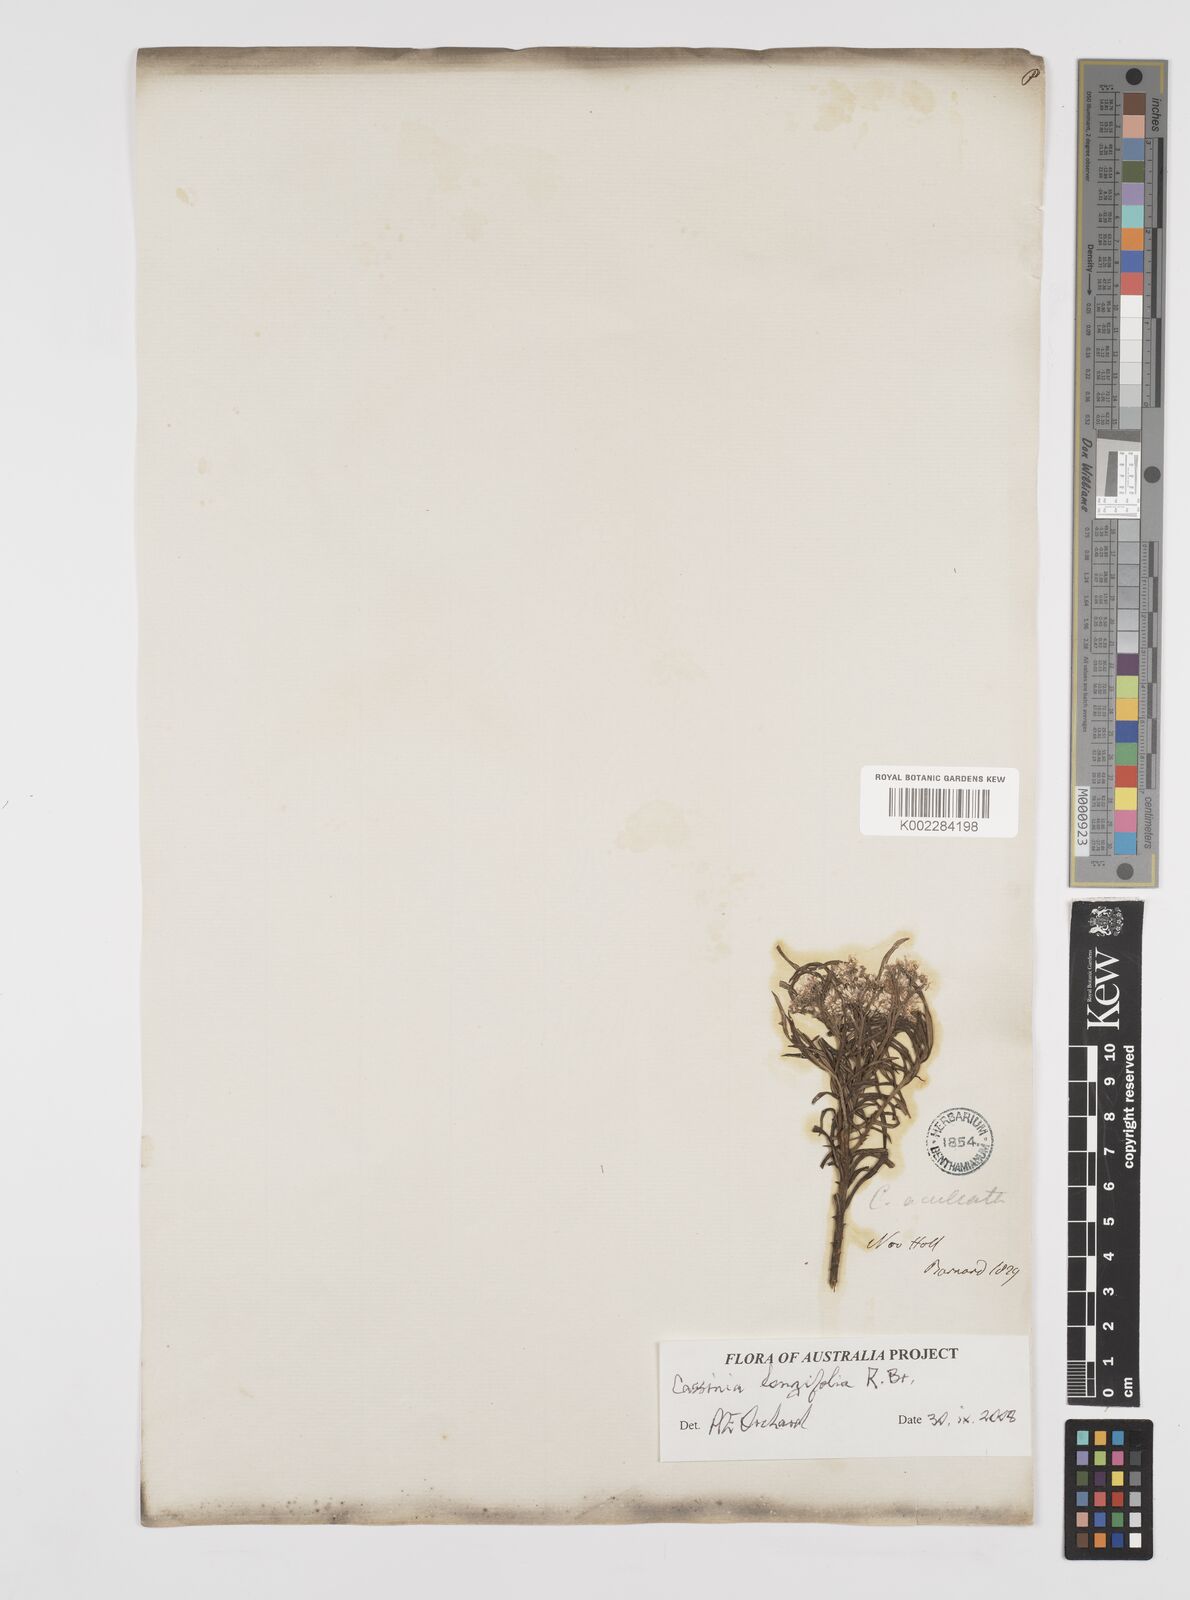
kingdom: Plantae
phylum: Tracheophyta
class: Magnoliopsida
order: Asterales
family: Asteraceae
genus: Cassinia
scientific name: Cassinia longifolia
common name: Longleaf-dogwood
